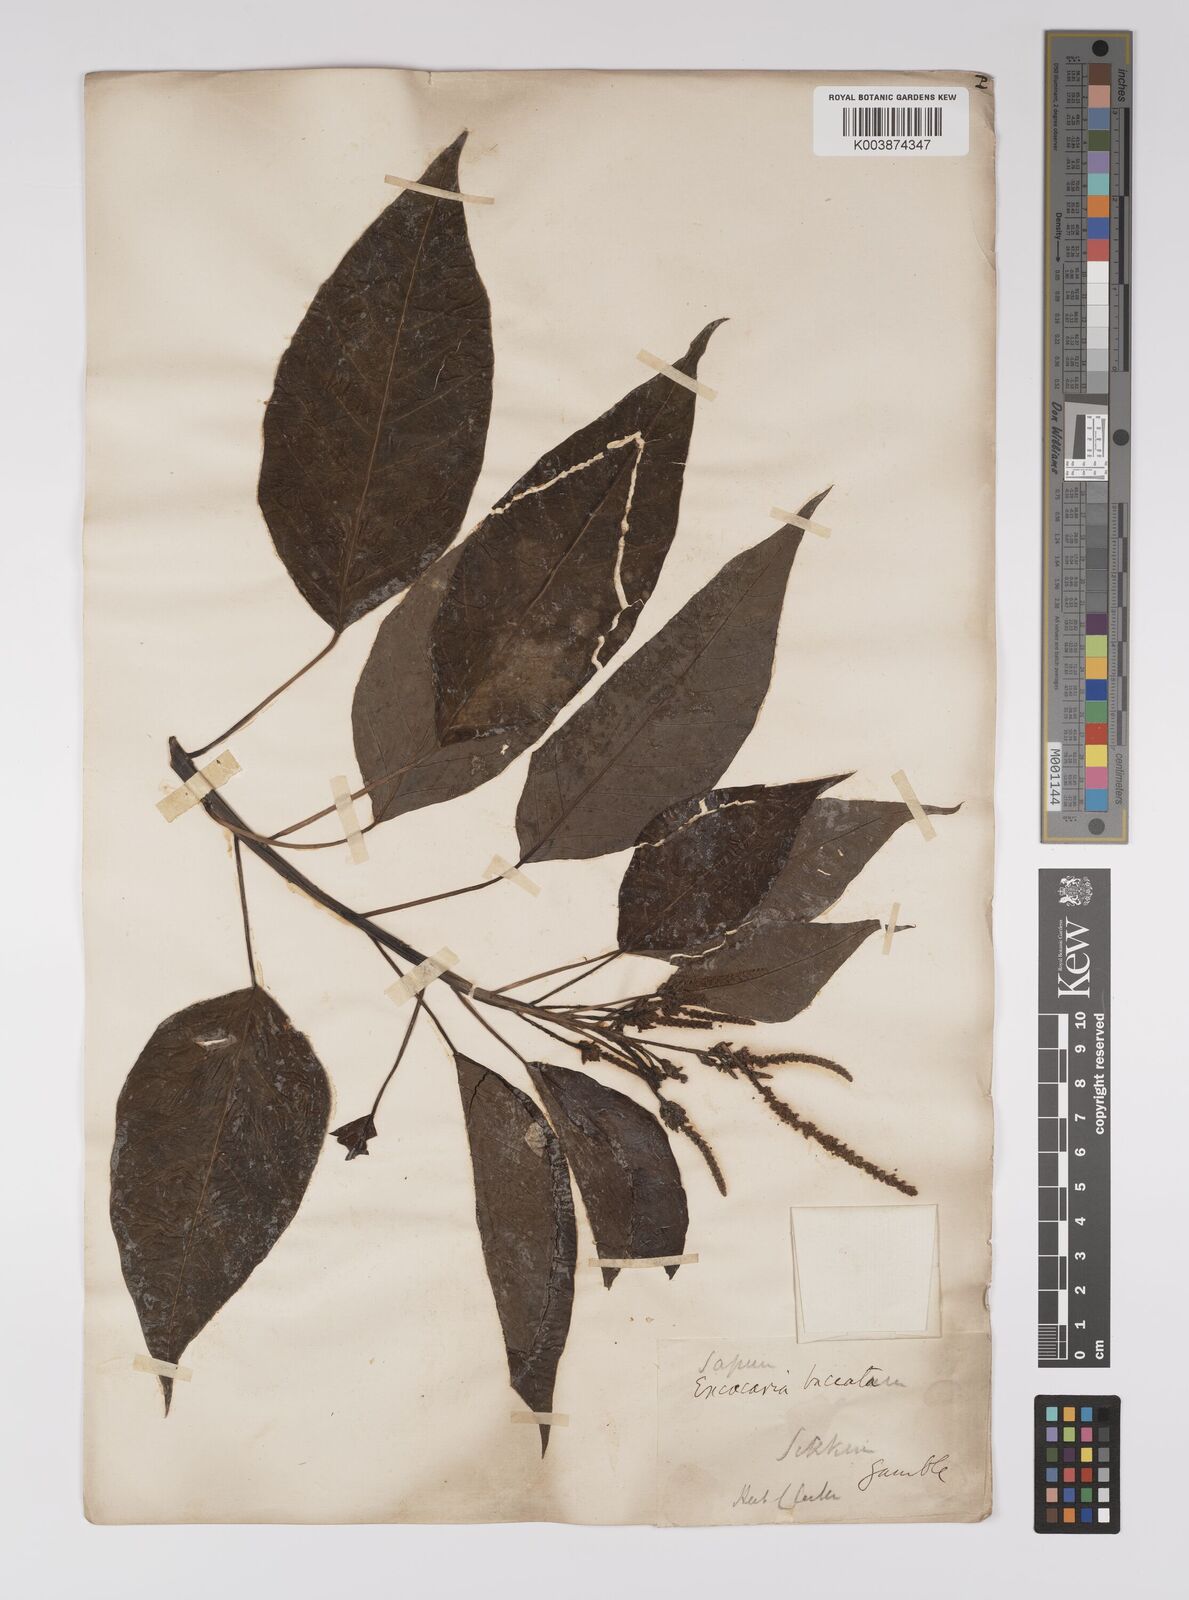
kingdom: Plantae
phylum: Tracheophyta
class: Magnoliopsida
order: Malpighiales
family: Euphorbiaceae
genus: Balakata
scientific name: Balakata baccata
